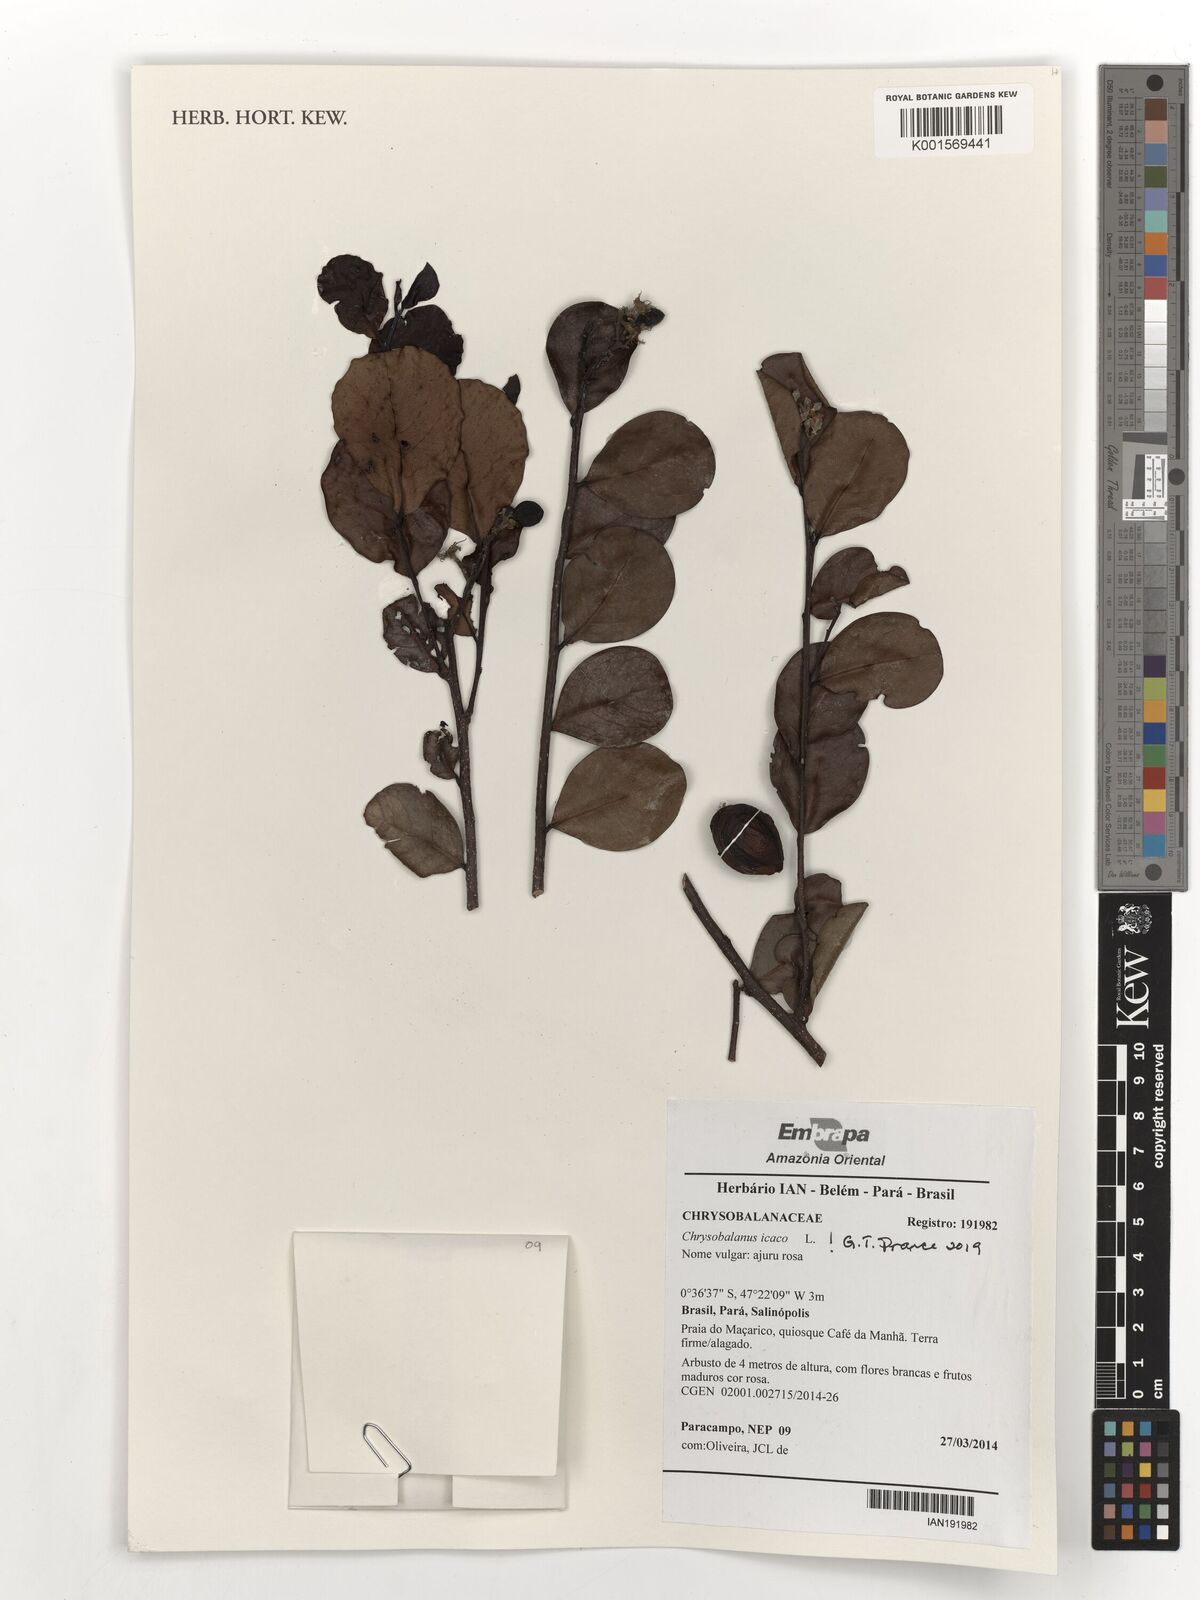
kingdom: Plantae
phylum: Tracheophyta
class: Magnoliopsida
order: Malpighiales
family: Chrysobalanaceae
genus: Chrysobalanus
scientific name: Chrysobalanus icaco
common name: Coco plum
